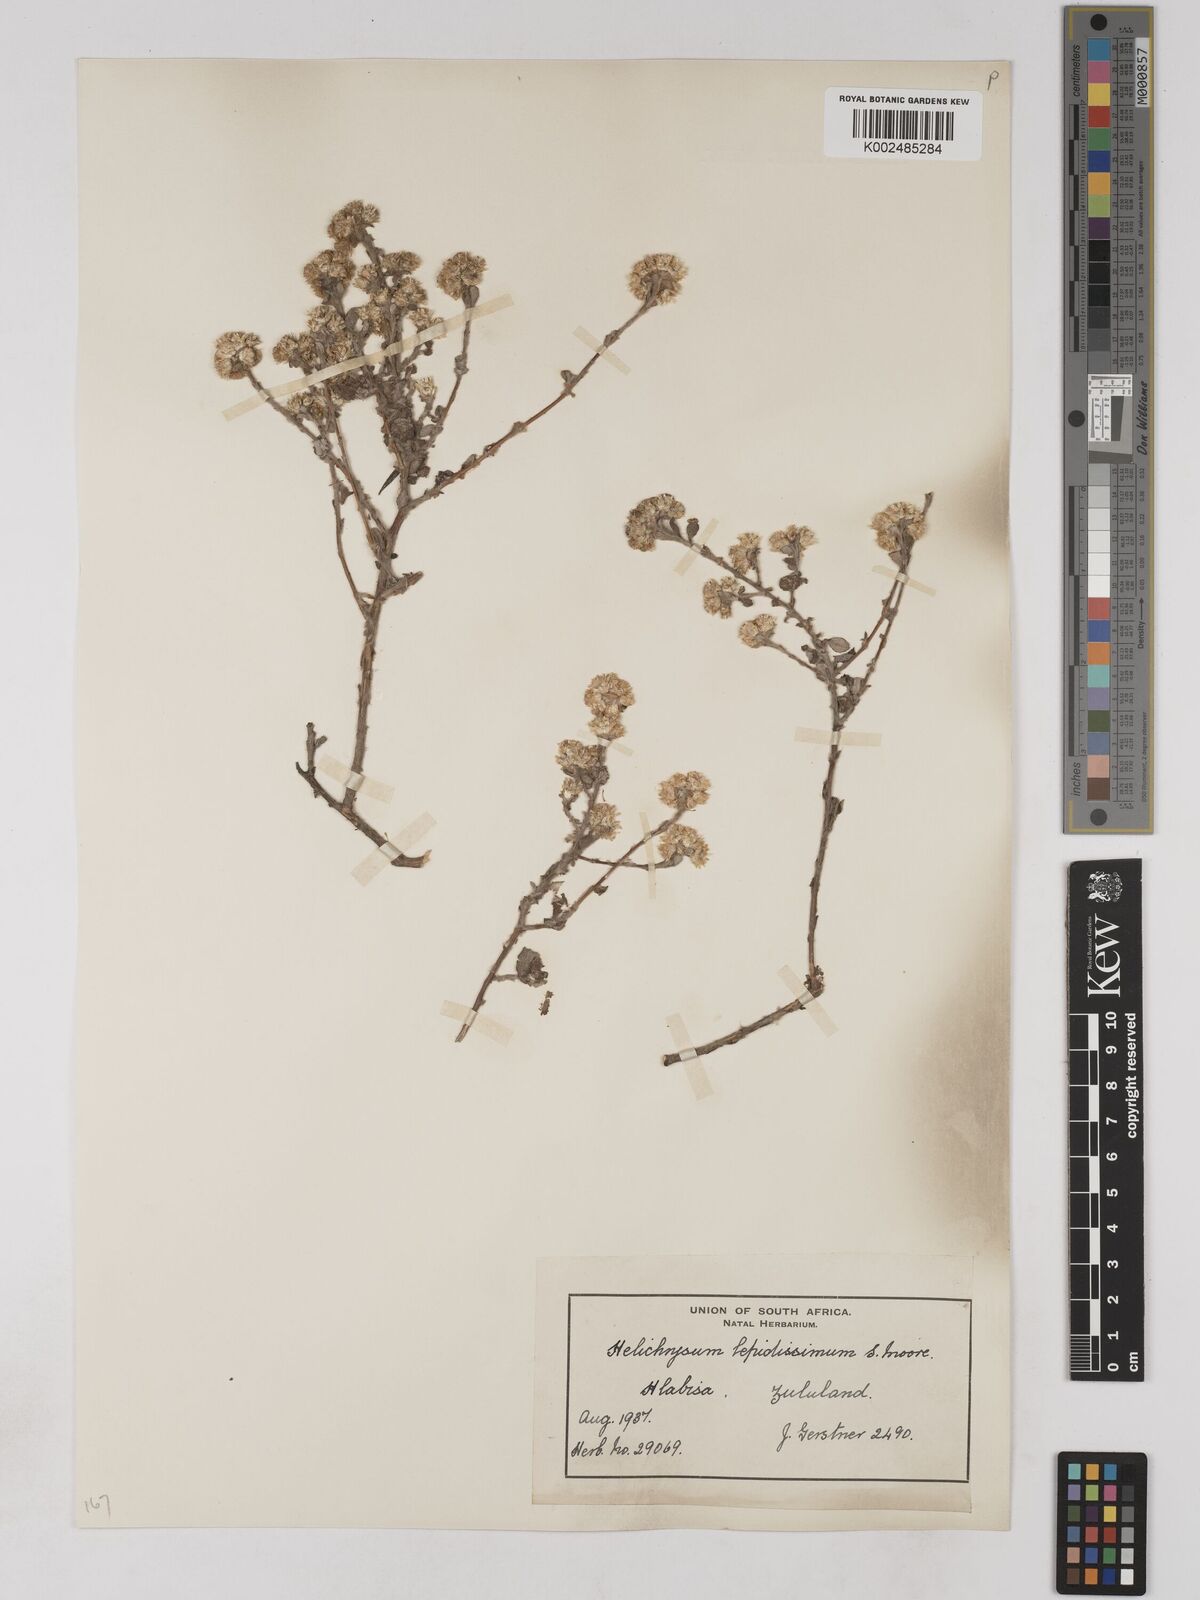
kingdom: Plantae
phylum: Tracheophyta
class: Magnoliopsida
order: Asterales
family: Asteraceae
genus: Helichrysum
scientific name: Helichrysum lepidissimum
